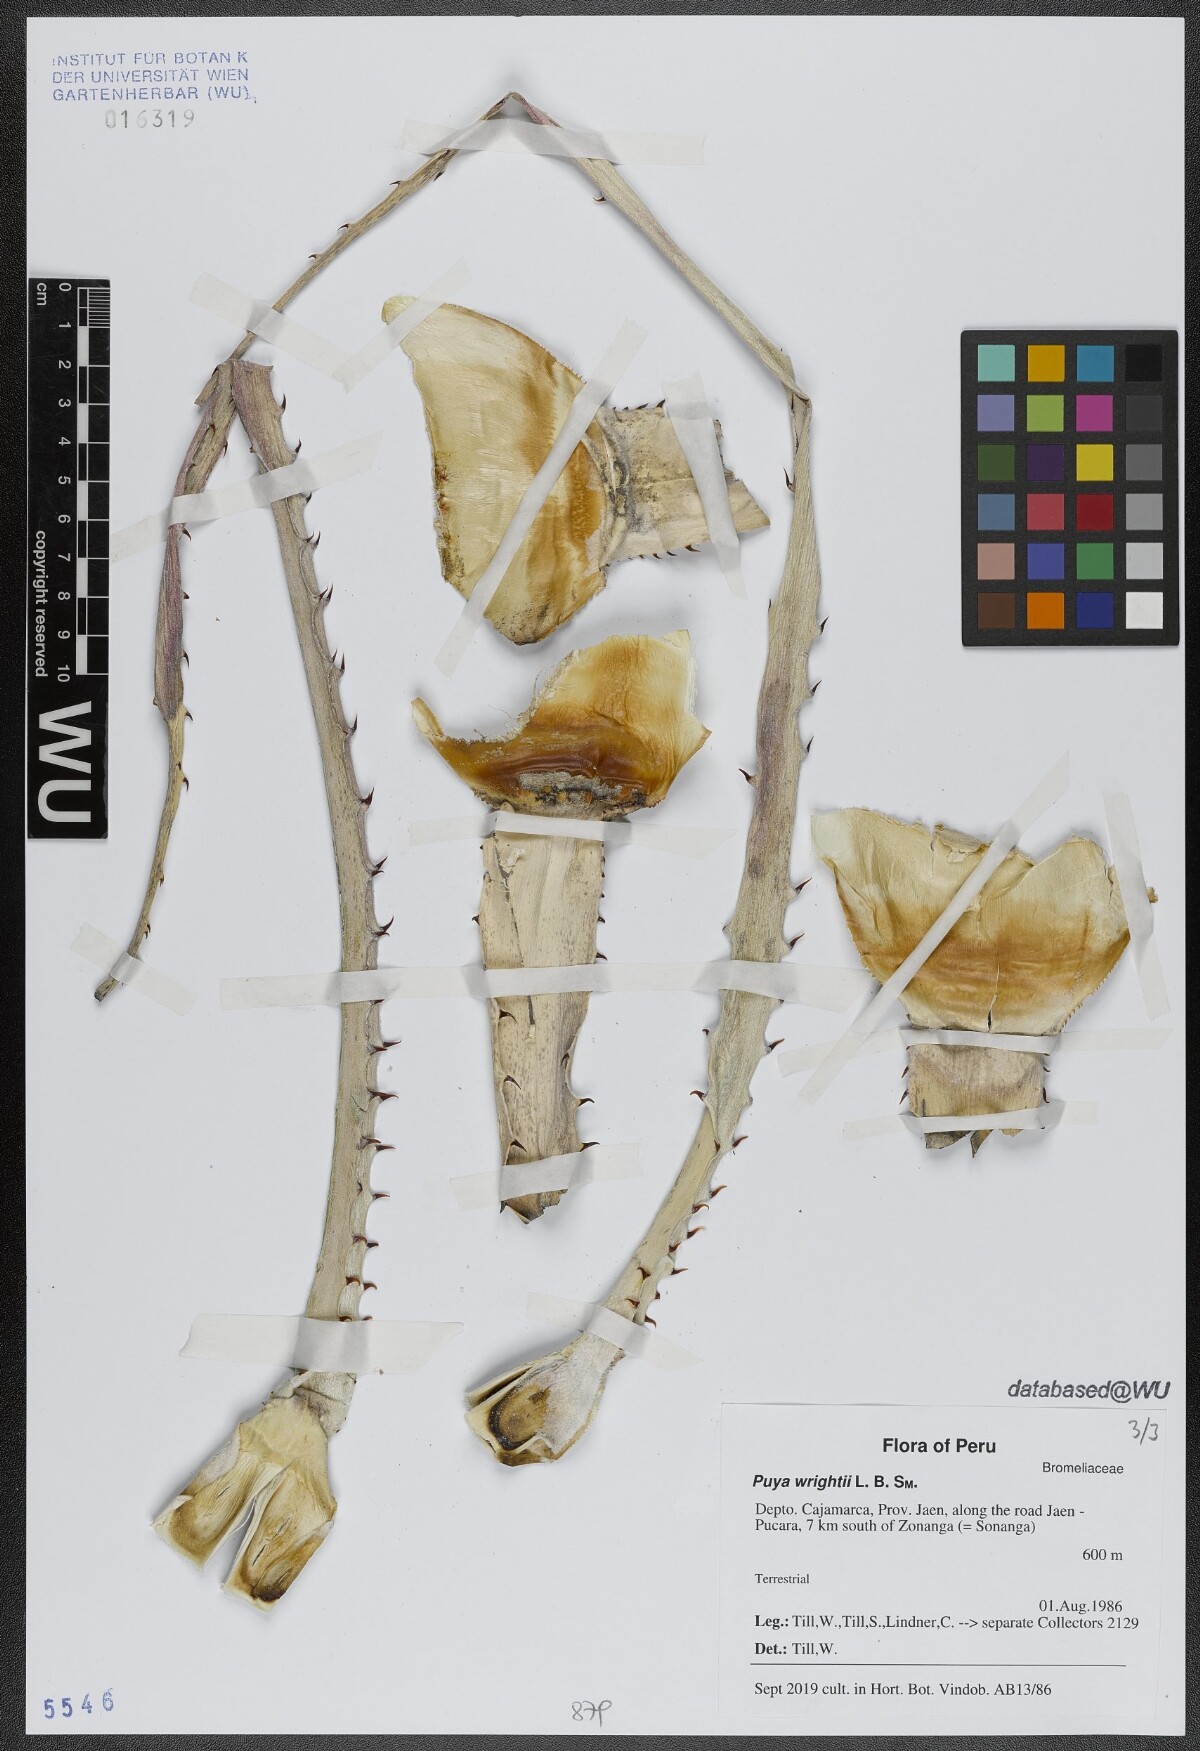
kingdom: Plantae
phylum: Tracheophyta
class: Liliopsida
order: Poales
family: Bromeliaceae
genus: Puya
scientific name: Puya wrightii
